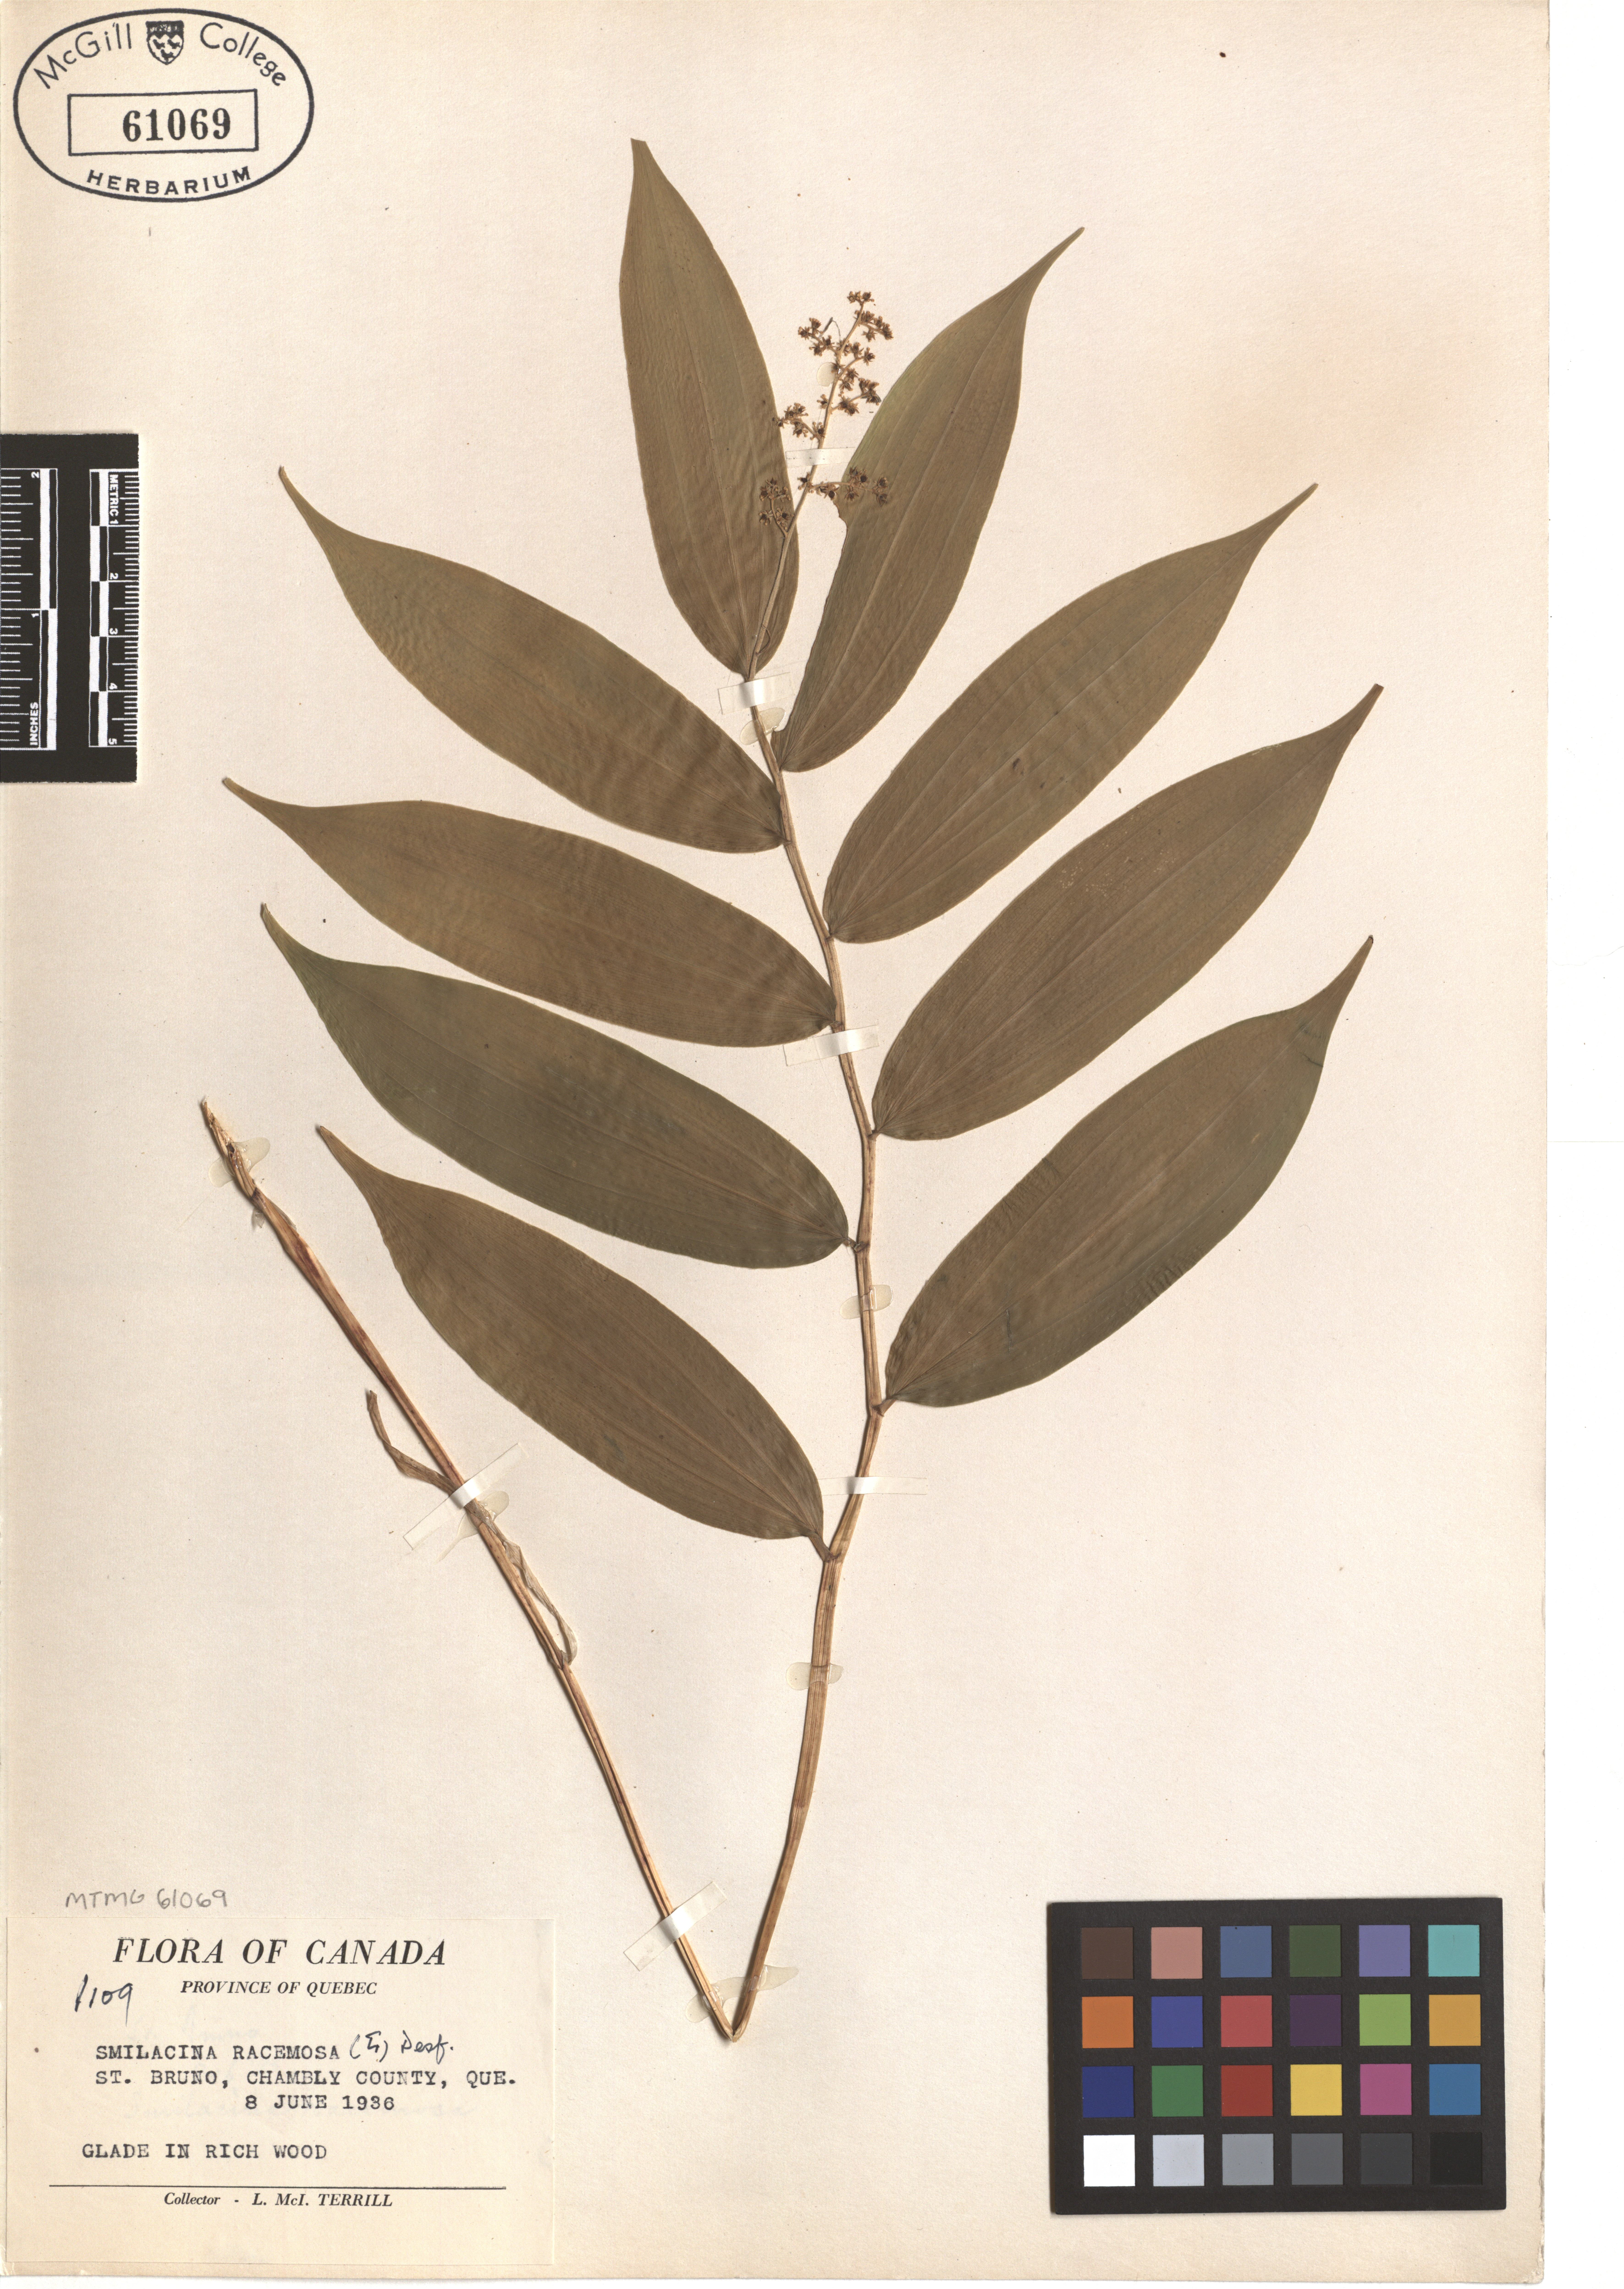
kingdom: Plantae
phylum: Tracheophyta
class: Liliopsida
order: Asparagales
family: Asparagaceae
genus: Maianthemum
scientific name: Maianthemum racemosum
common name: False spikenard
